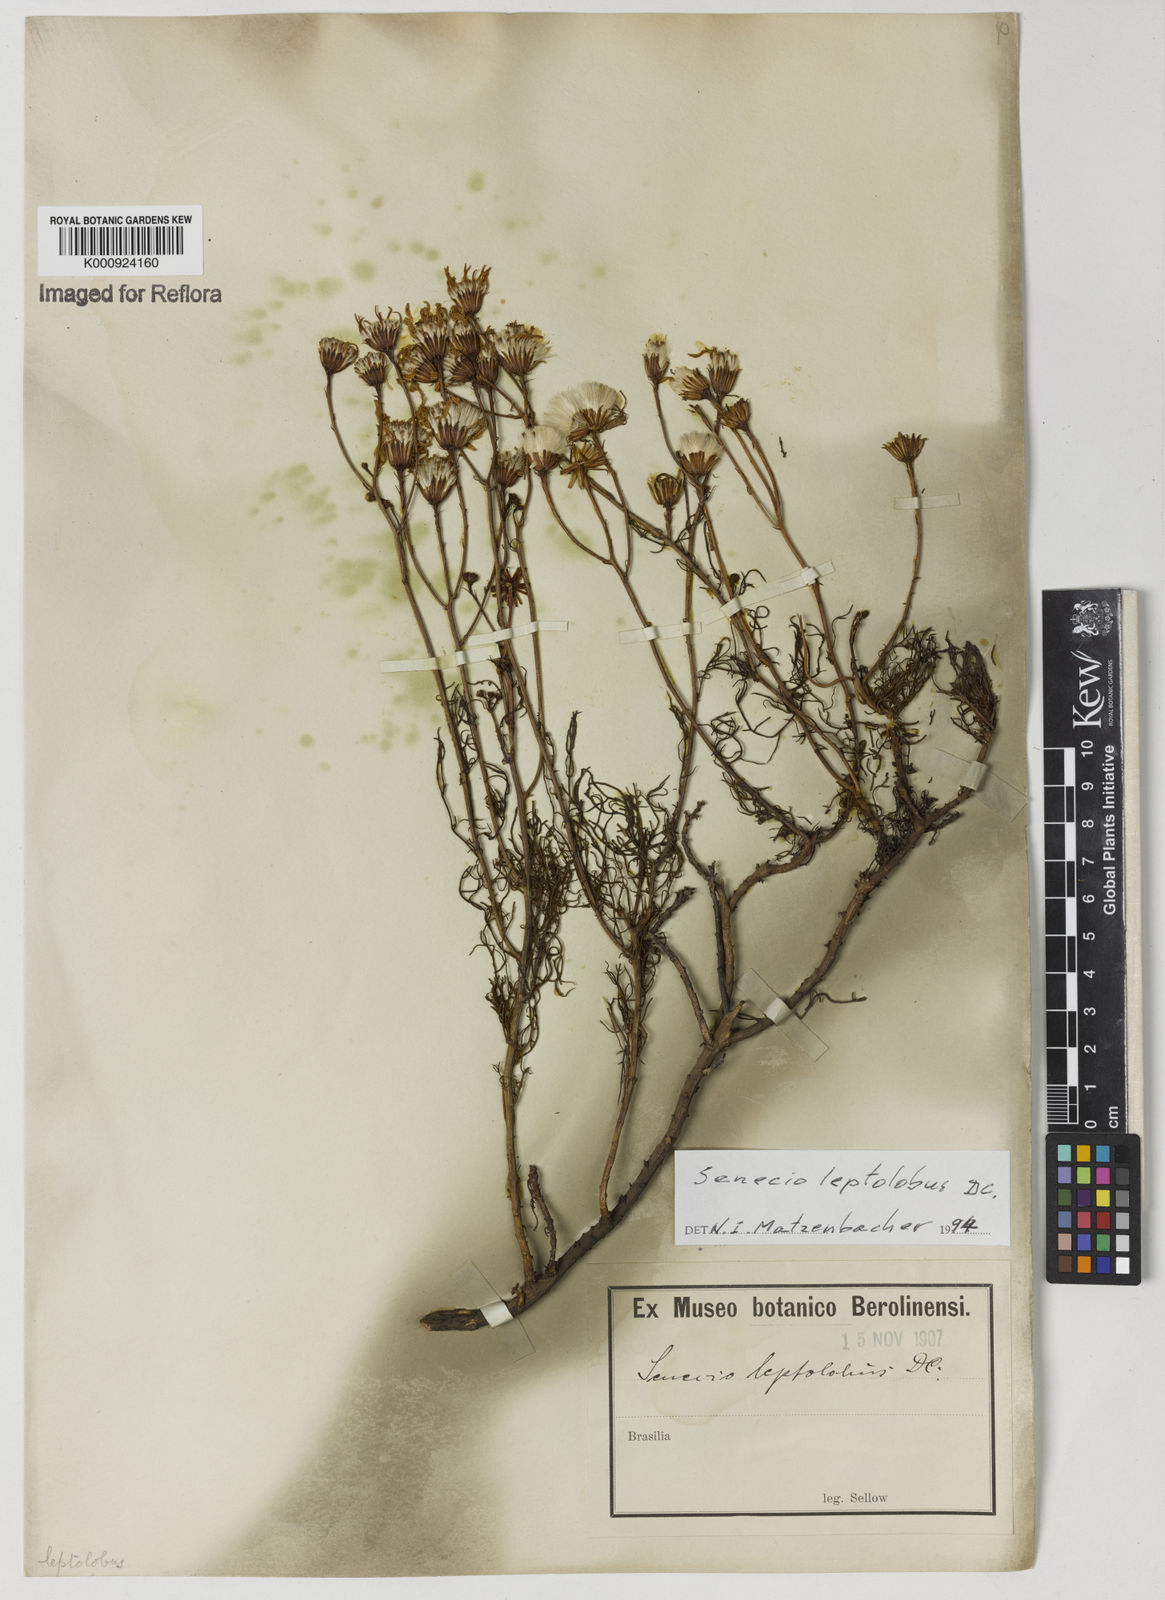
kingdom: Plantae
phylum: Tracheophyta
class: Magnoliopsida
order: Asterales
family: Asteraceae
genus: Senecio
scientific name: Senecio leptolobus
